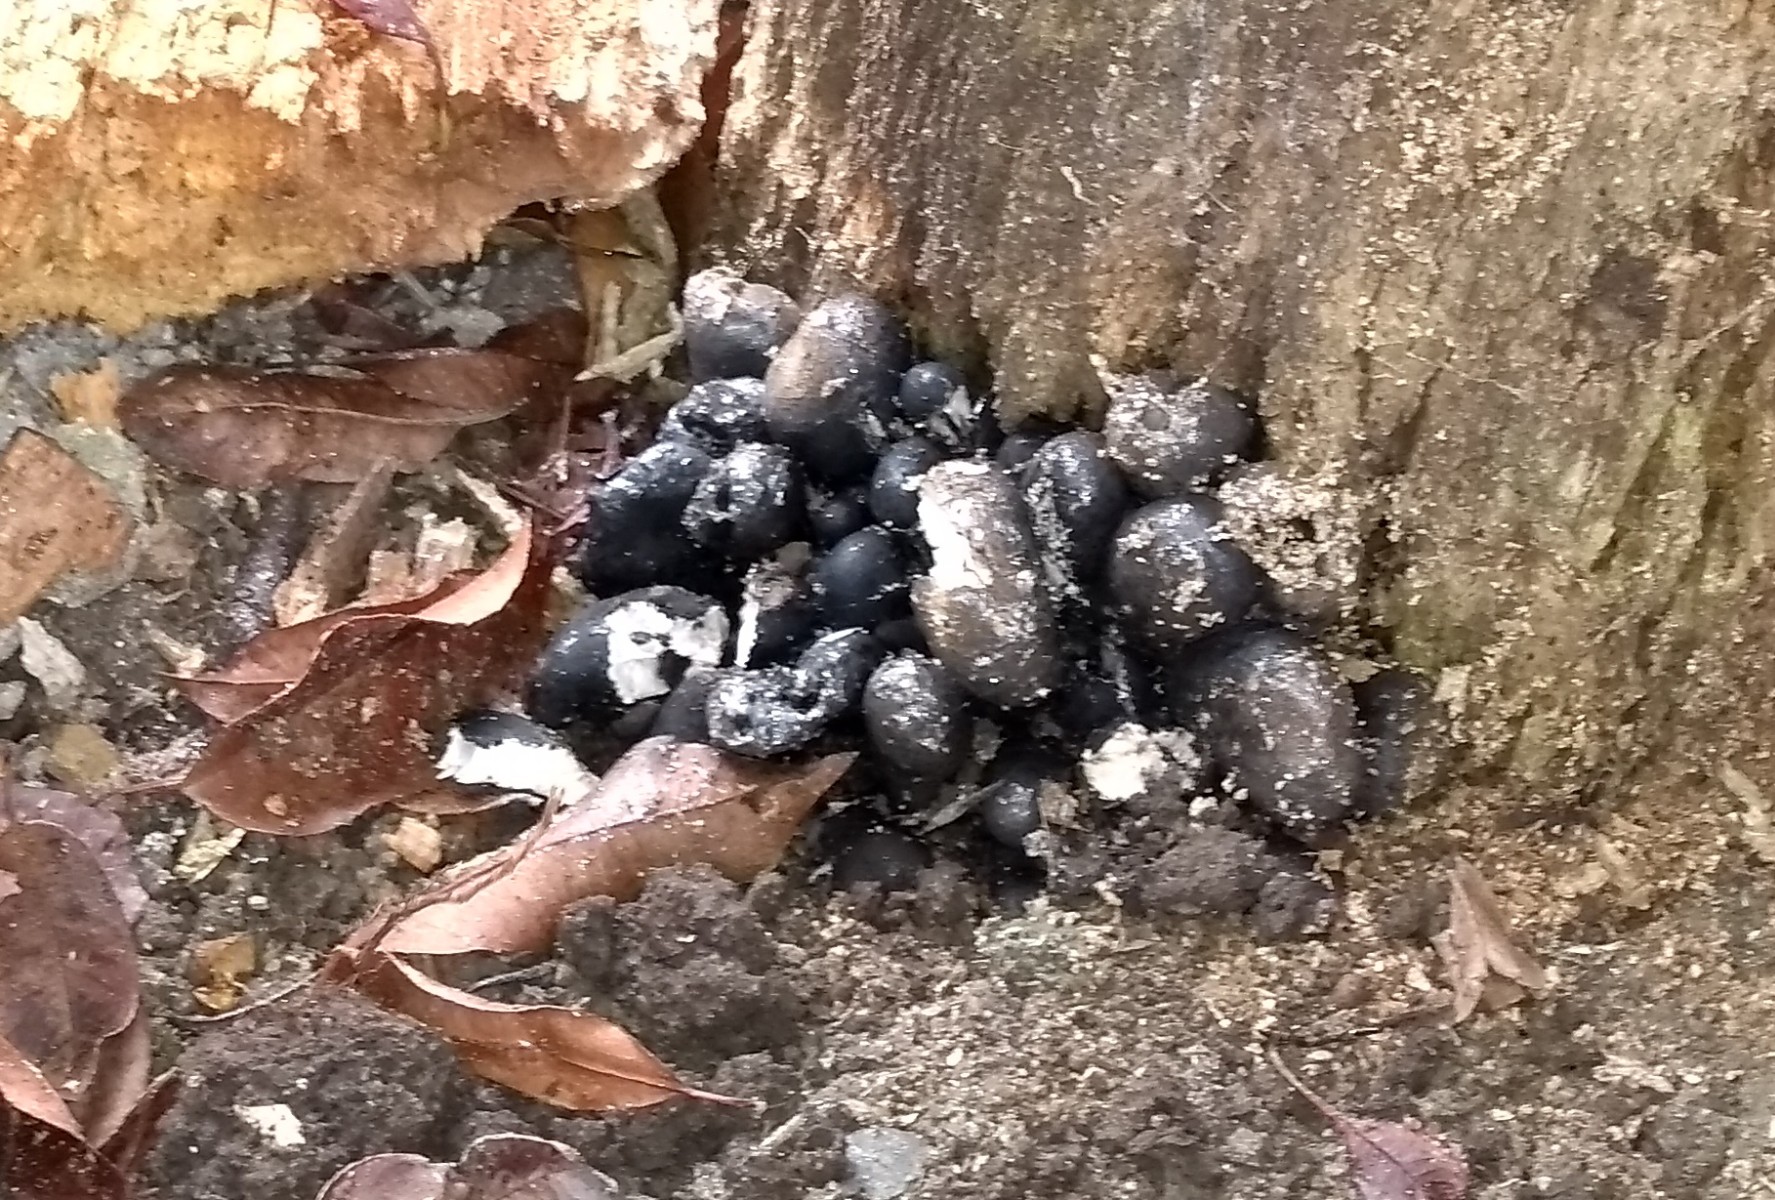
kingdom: Fungi
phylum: Ascomycota
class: Sordariomycetes
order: Xylariales
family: Xylariaceae
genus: Xylaria
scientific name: Xylaria polymorpha
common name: kølle-stødsvamp
